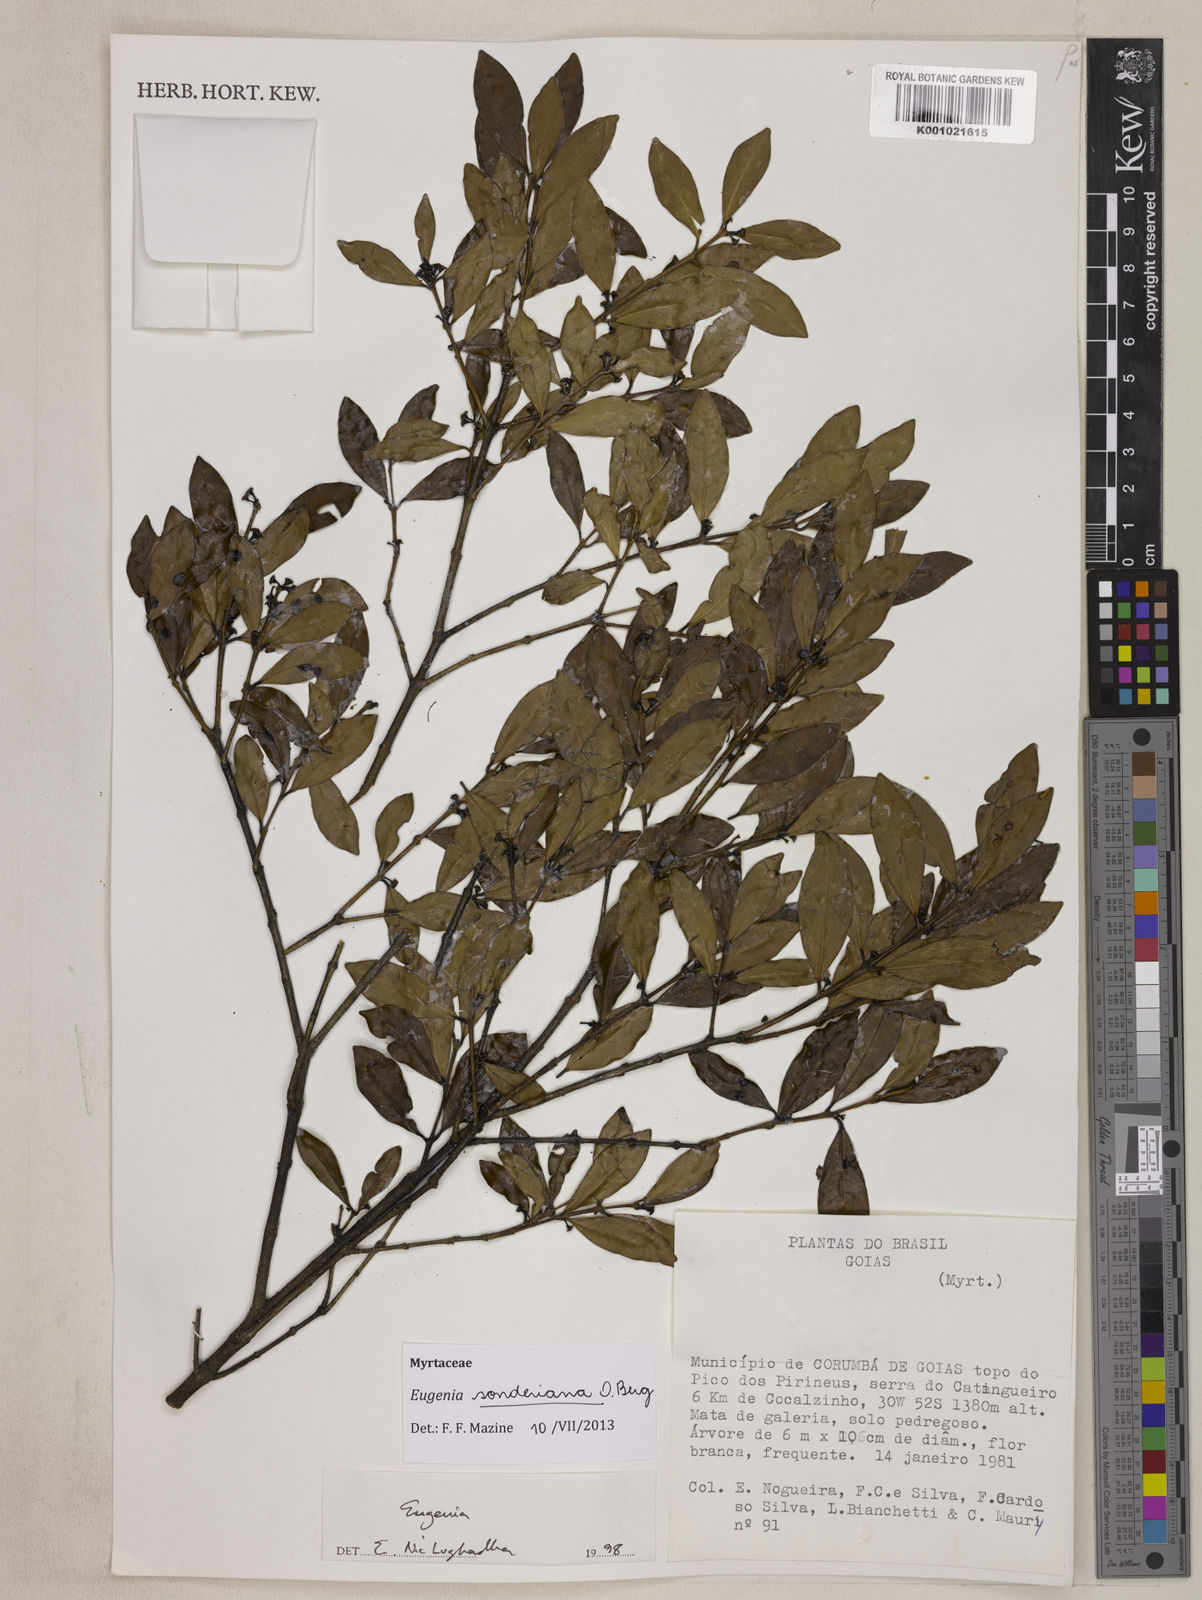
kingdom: Plantae
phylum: Tracheophyta
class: Magnoliopsida
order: Myrtales
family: Myrtaceae
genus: Eugenia
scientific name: Eugenia sonderiana
